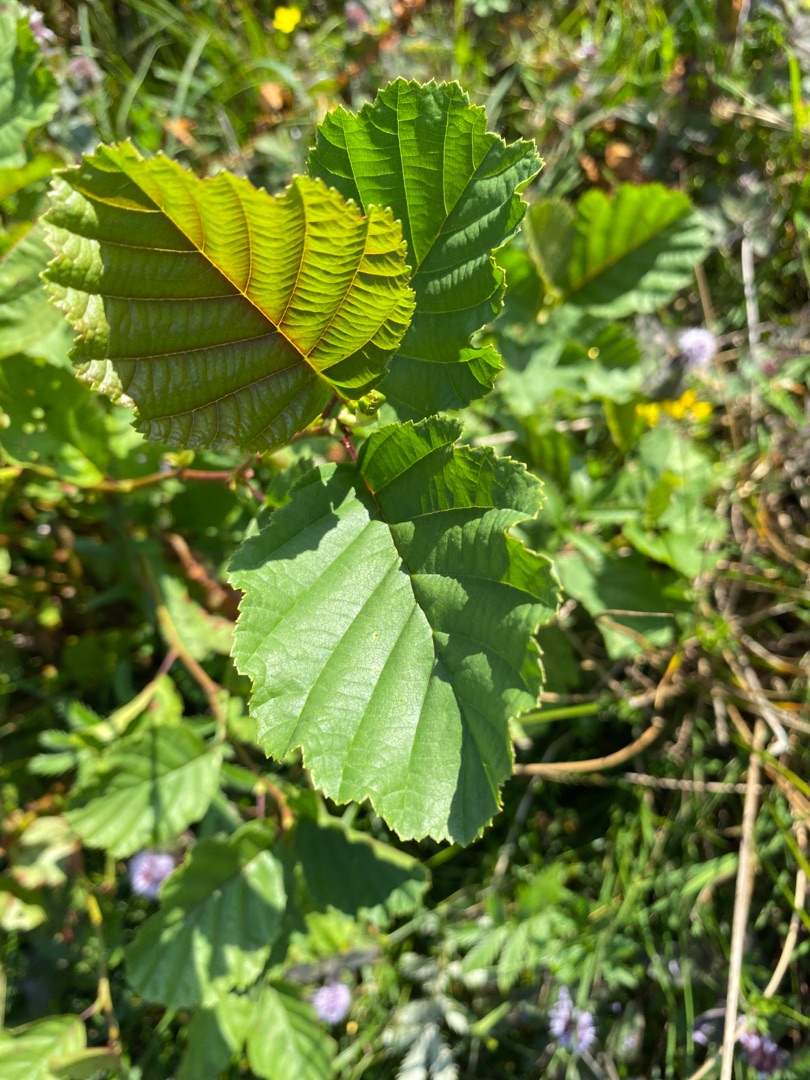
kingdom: Plantae
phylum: Tracheophyta
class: Magnoliopsida
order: Fagales
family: Betulaceae
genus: Alnus
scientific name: Alnus glutinosa
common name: Rød-el
